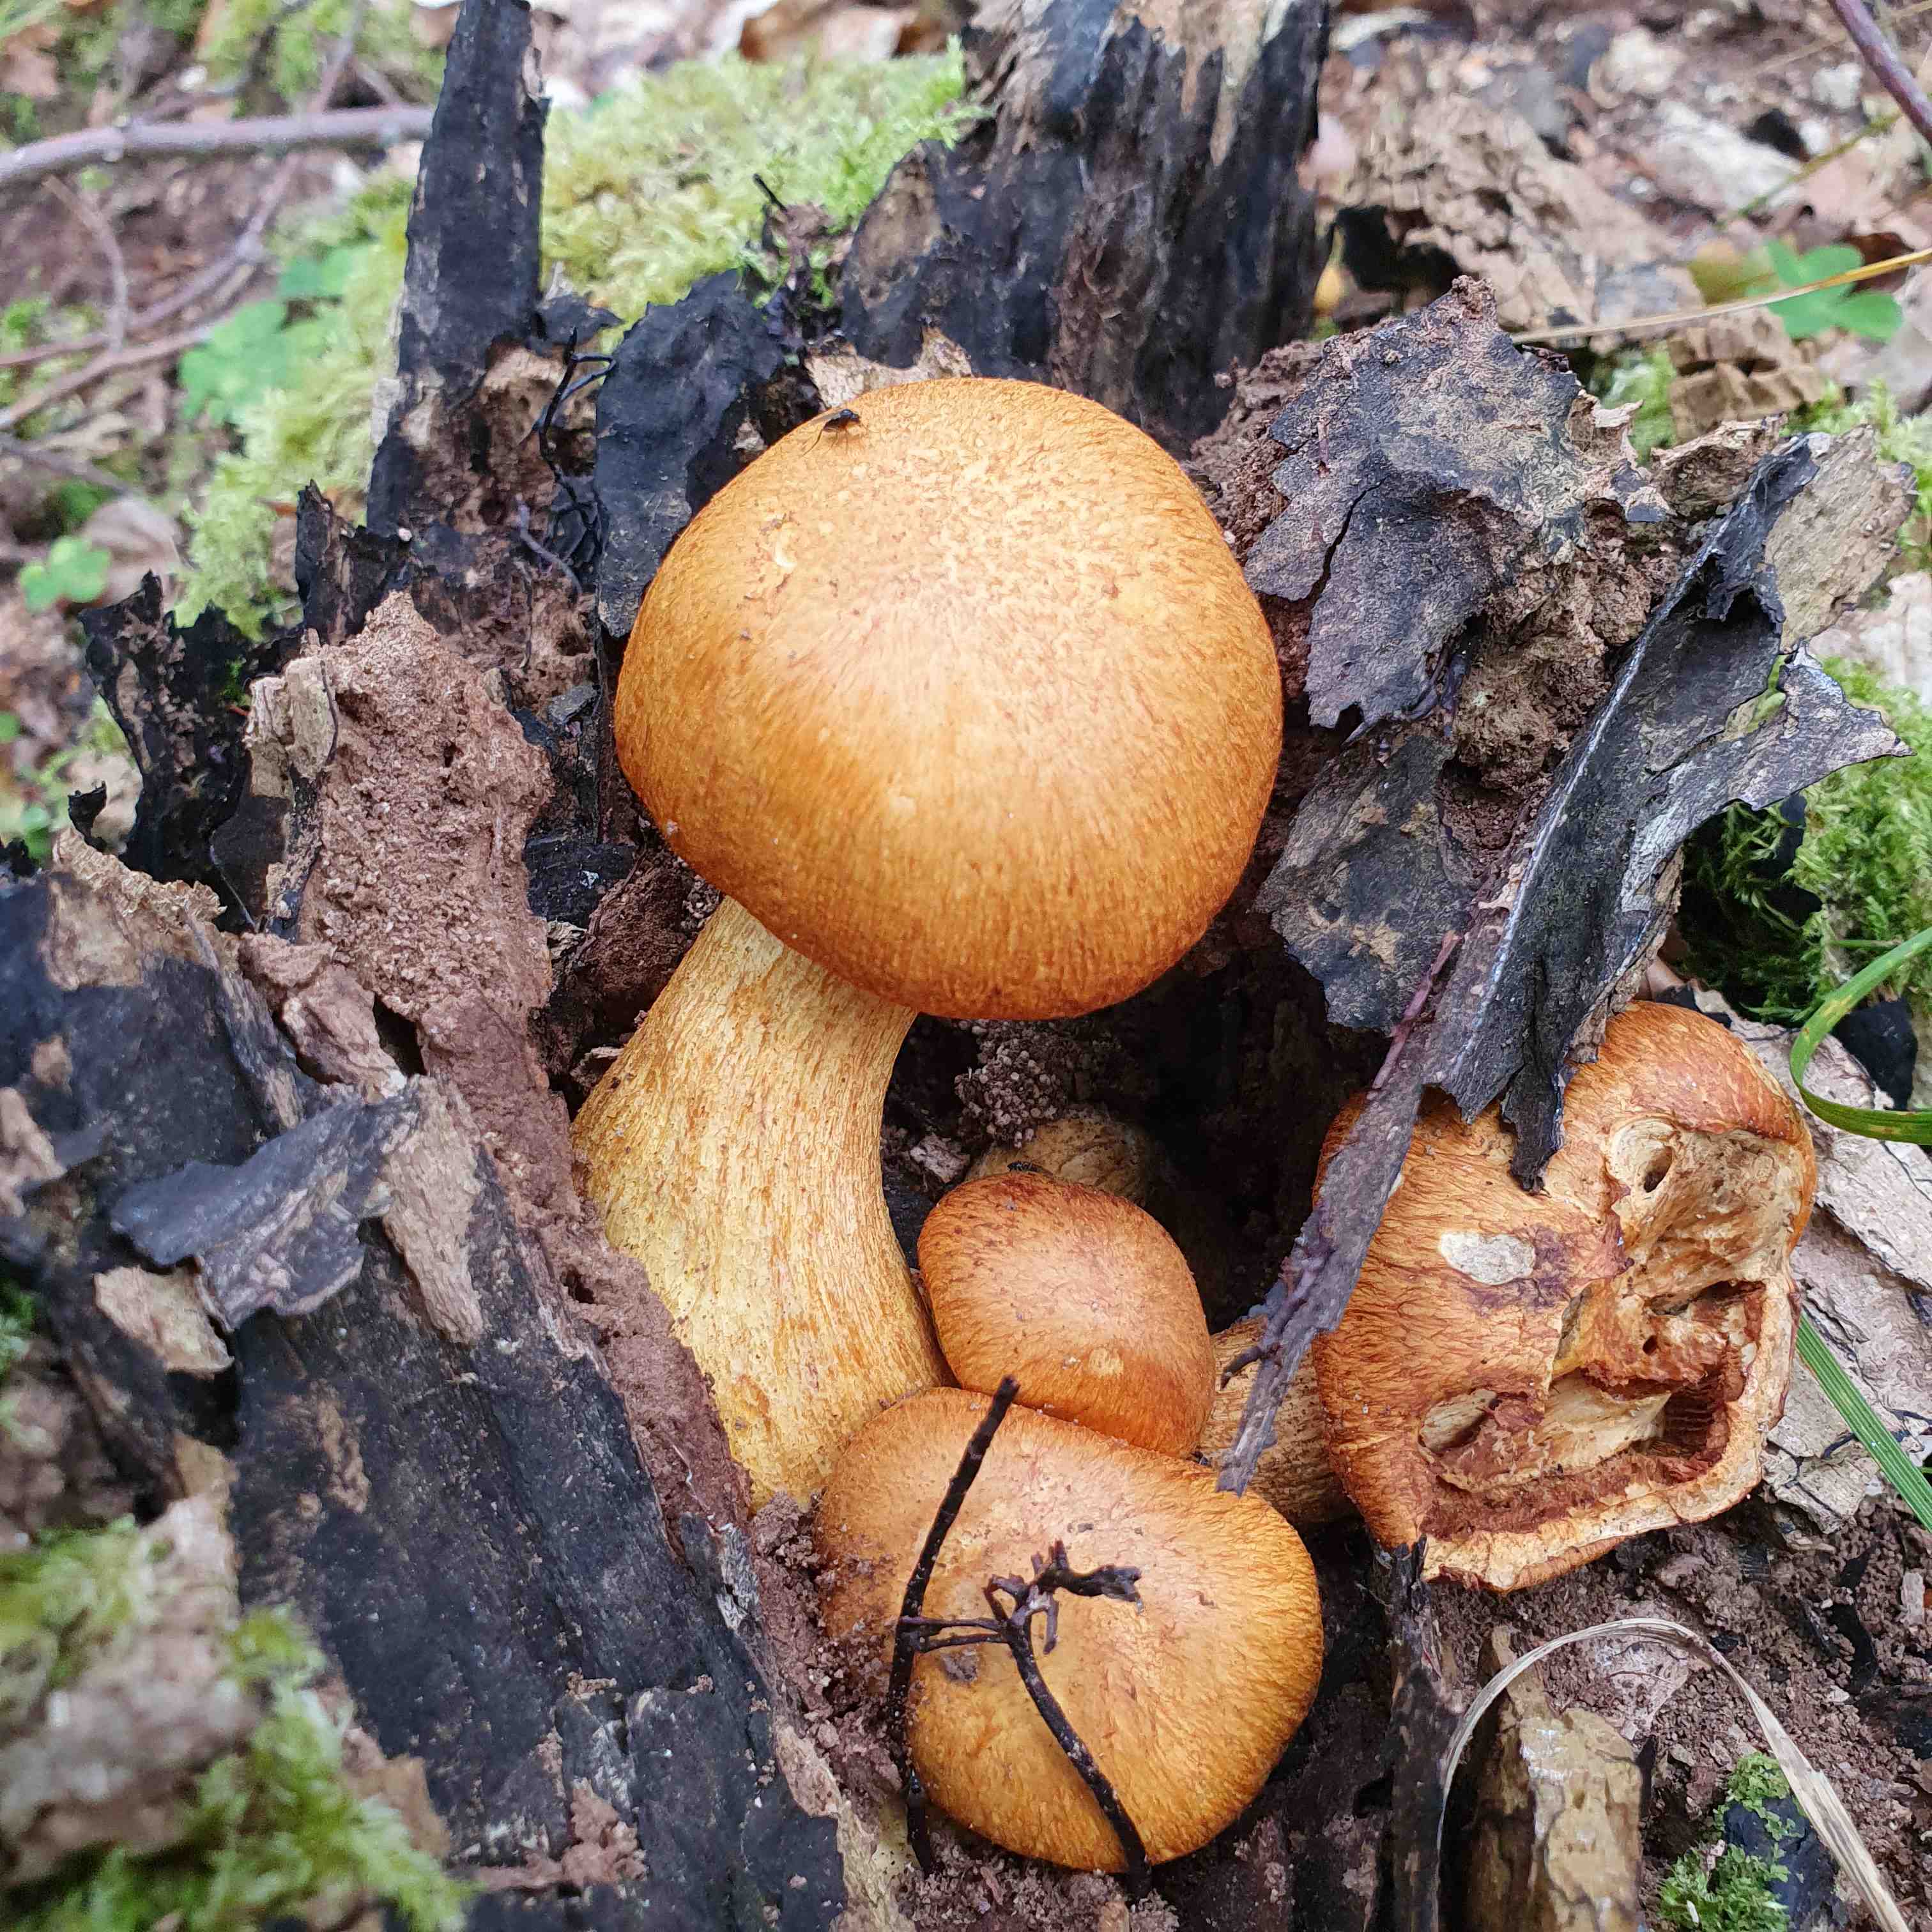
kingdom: Fungi
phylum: Basidiomycota
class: Agaricomycetes
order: Agaricales
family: Hymenogastraceae
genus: Gymnopilus
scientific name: Gymnopilus spectabilis
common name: fibret flammehat
